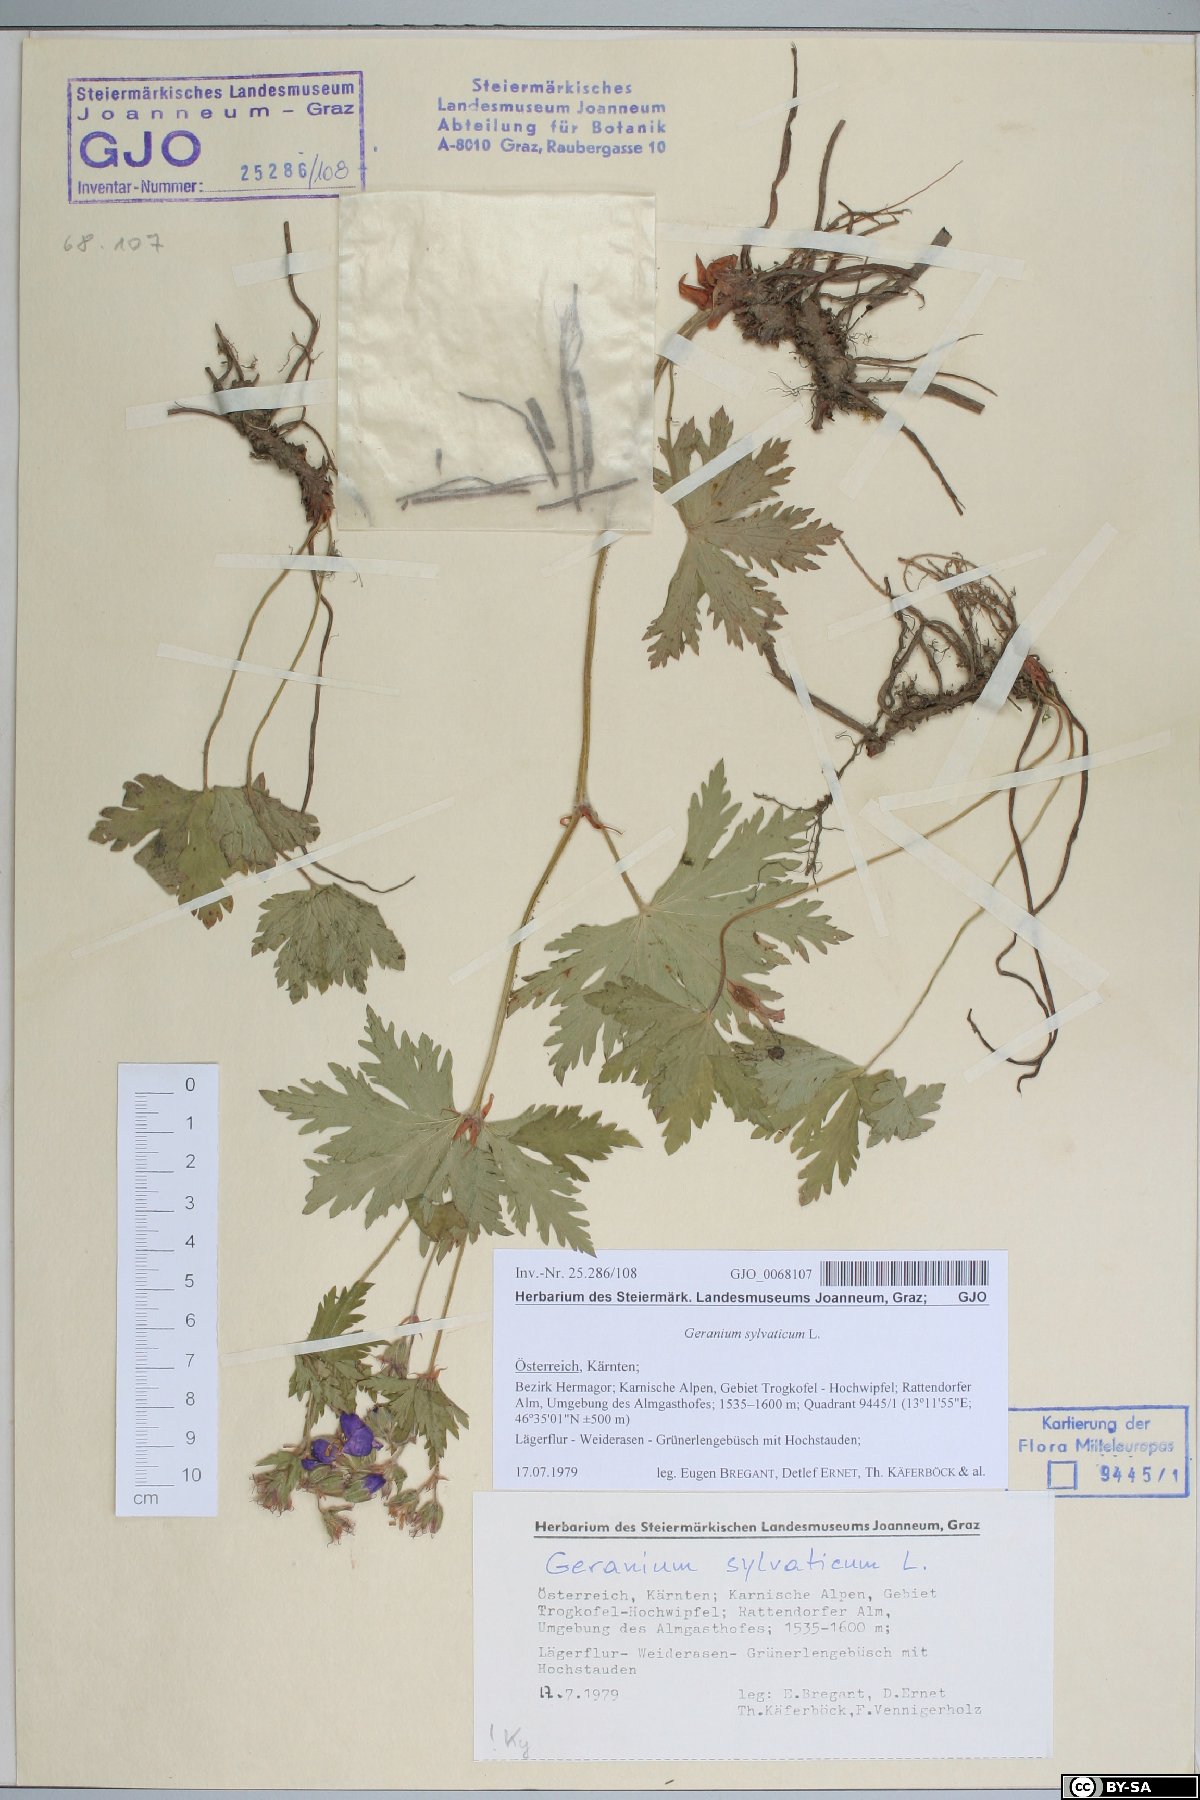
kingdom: Plantae
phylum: Tracheophyta
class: Magnoliopsida
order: Geraniales
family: Geraniaceae
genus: Geranium
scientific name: Geranium sylvaticum
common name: Wood crane's-bill
